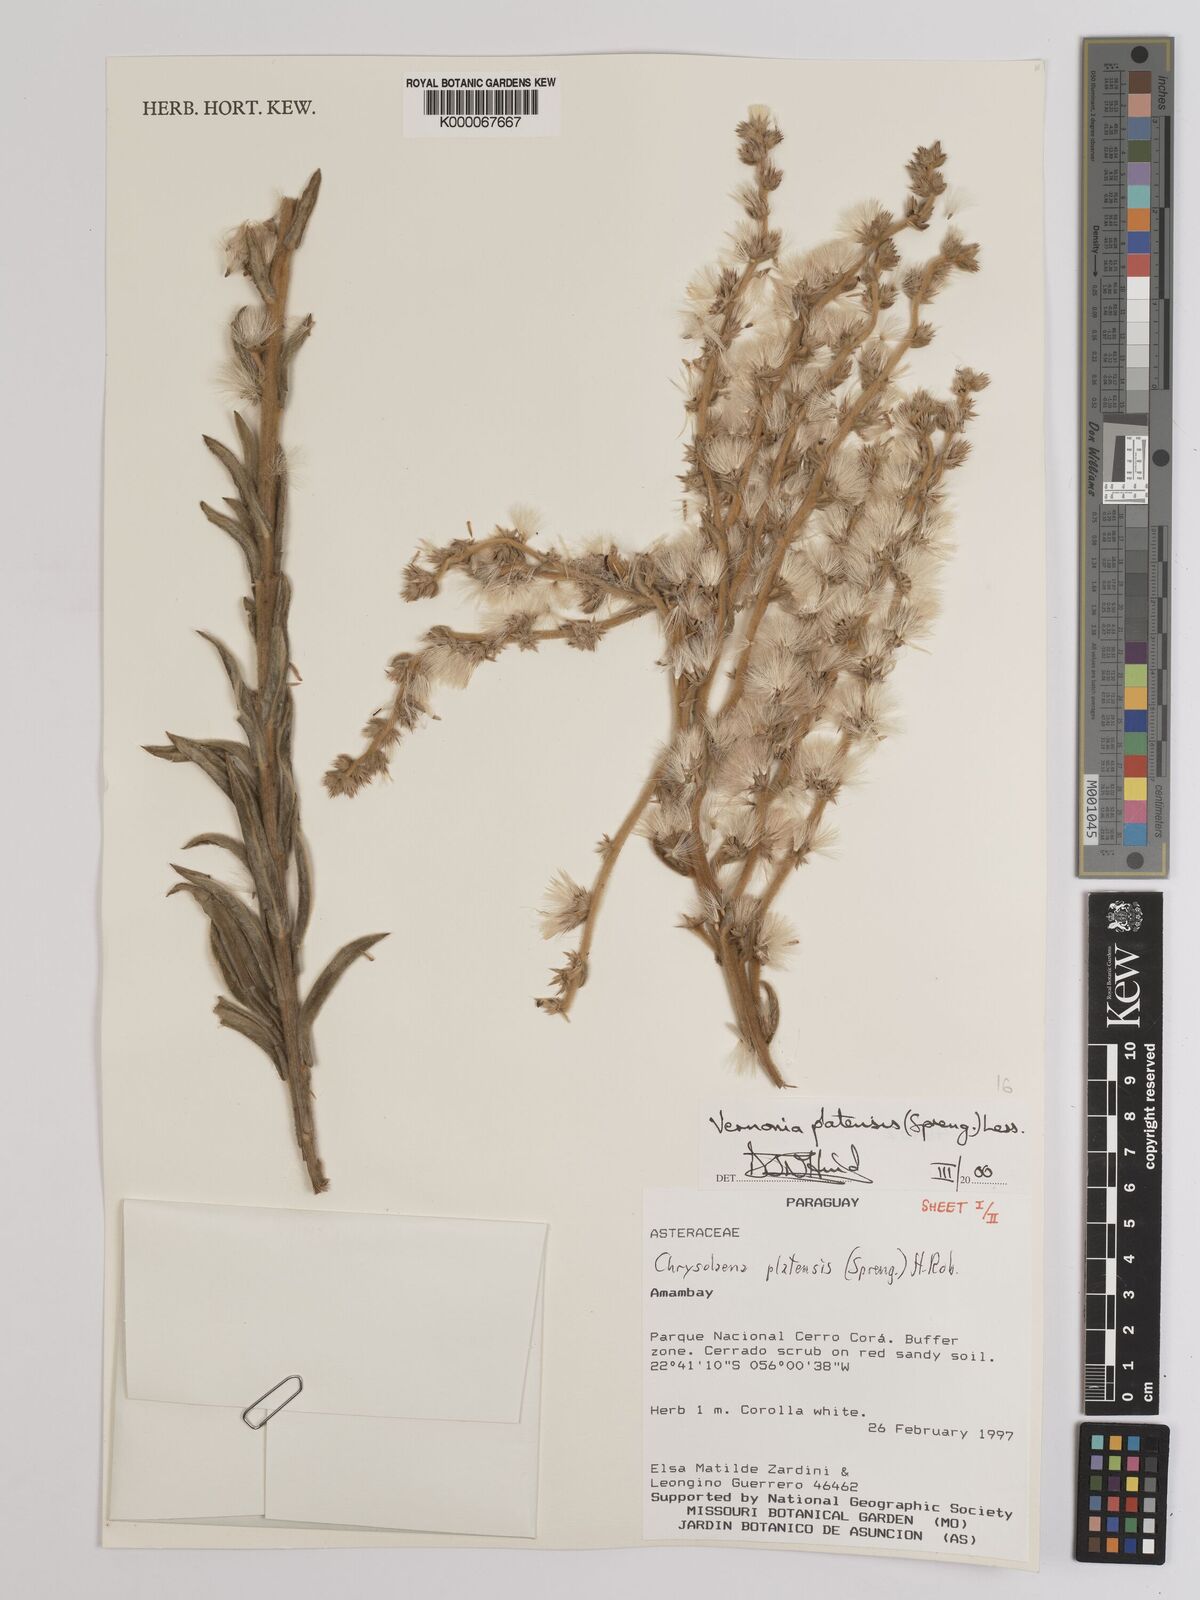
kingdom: Plantae
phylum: Tracheophyta
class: Magnoliopsida
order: Asterales
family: Asteraceae
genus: Chrysolaena
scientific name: Chrysolaena platensis
